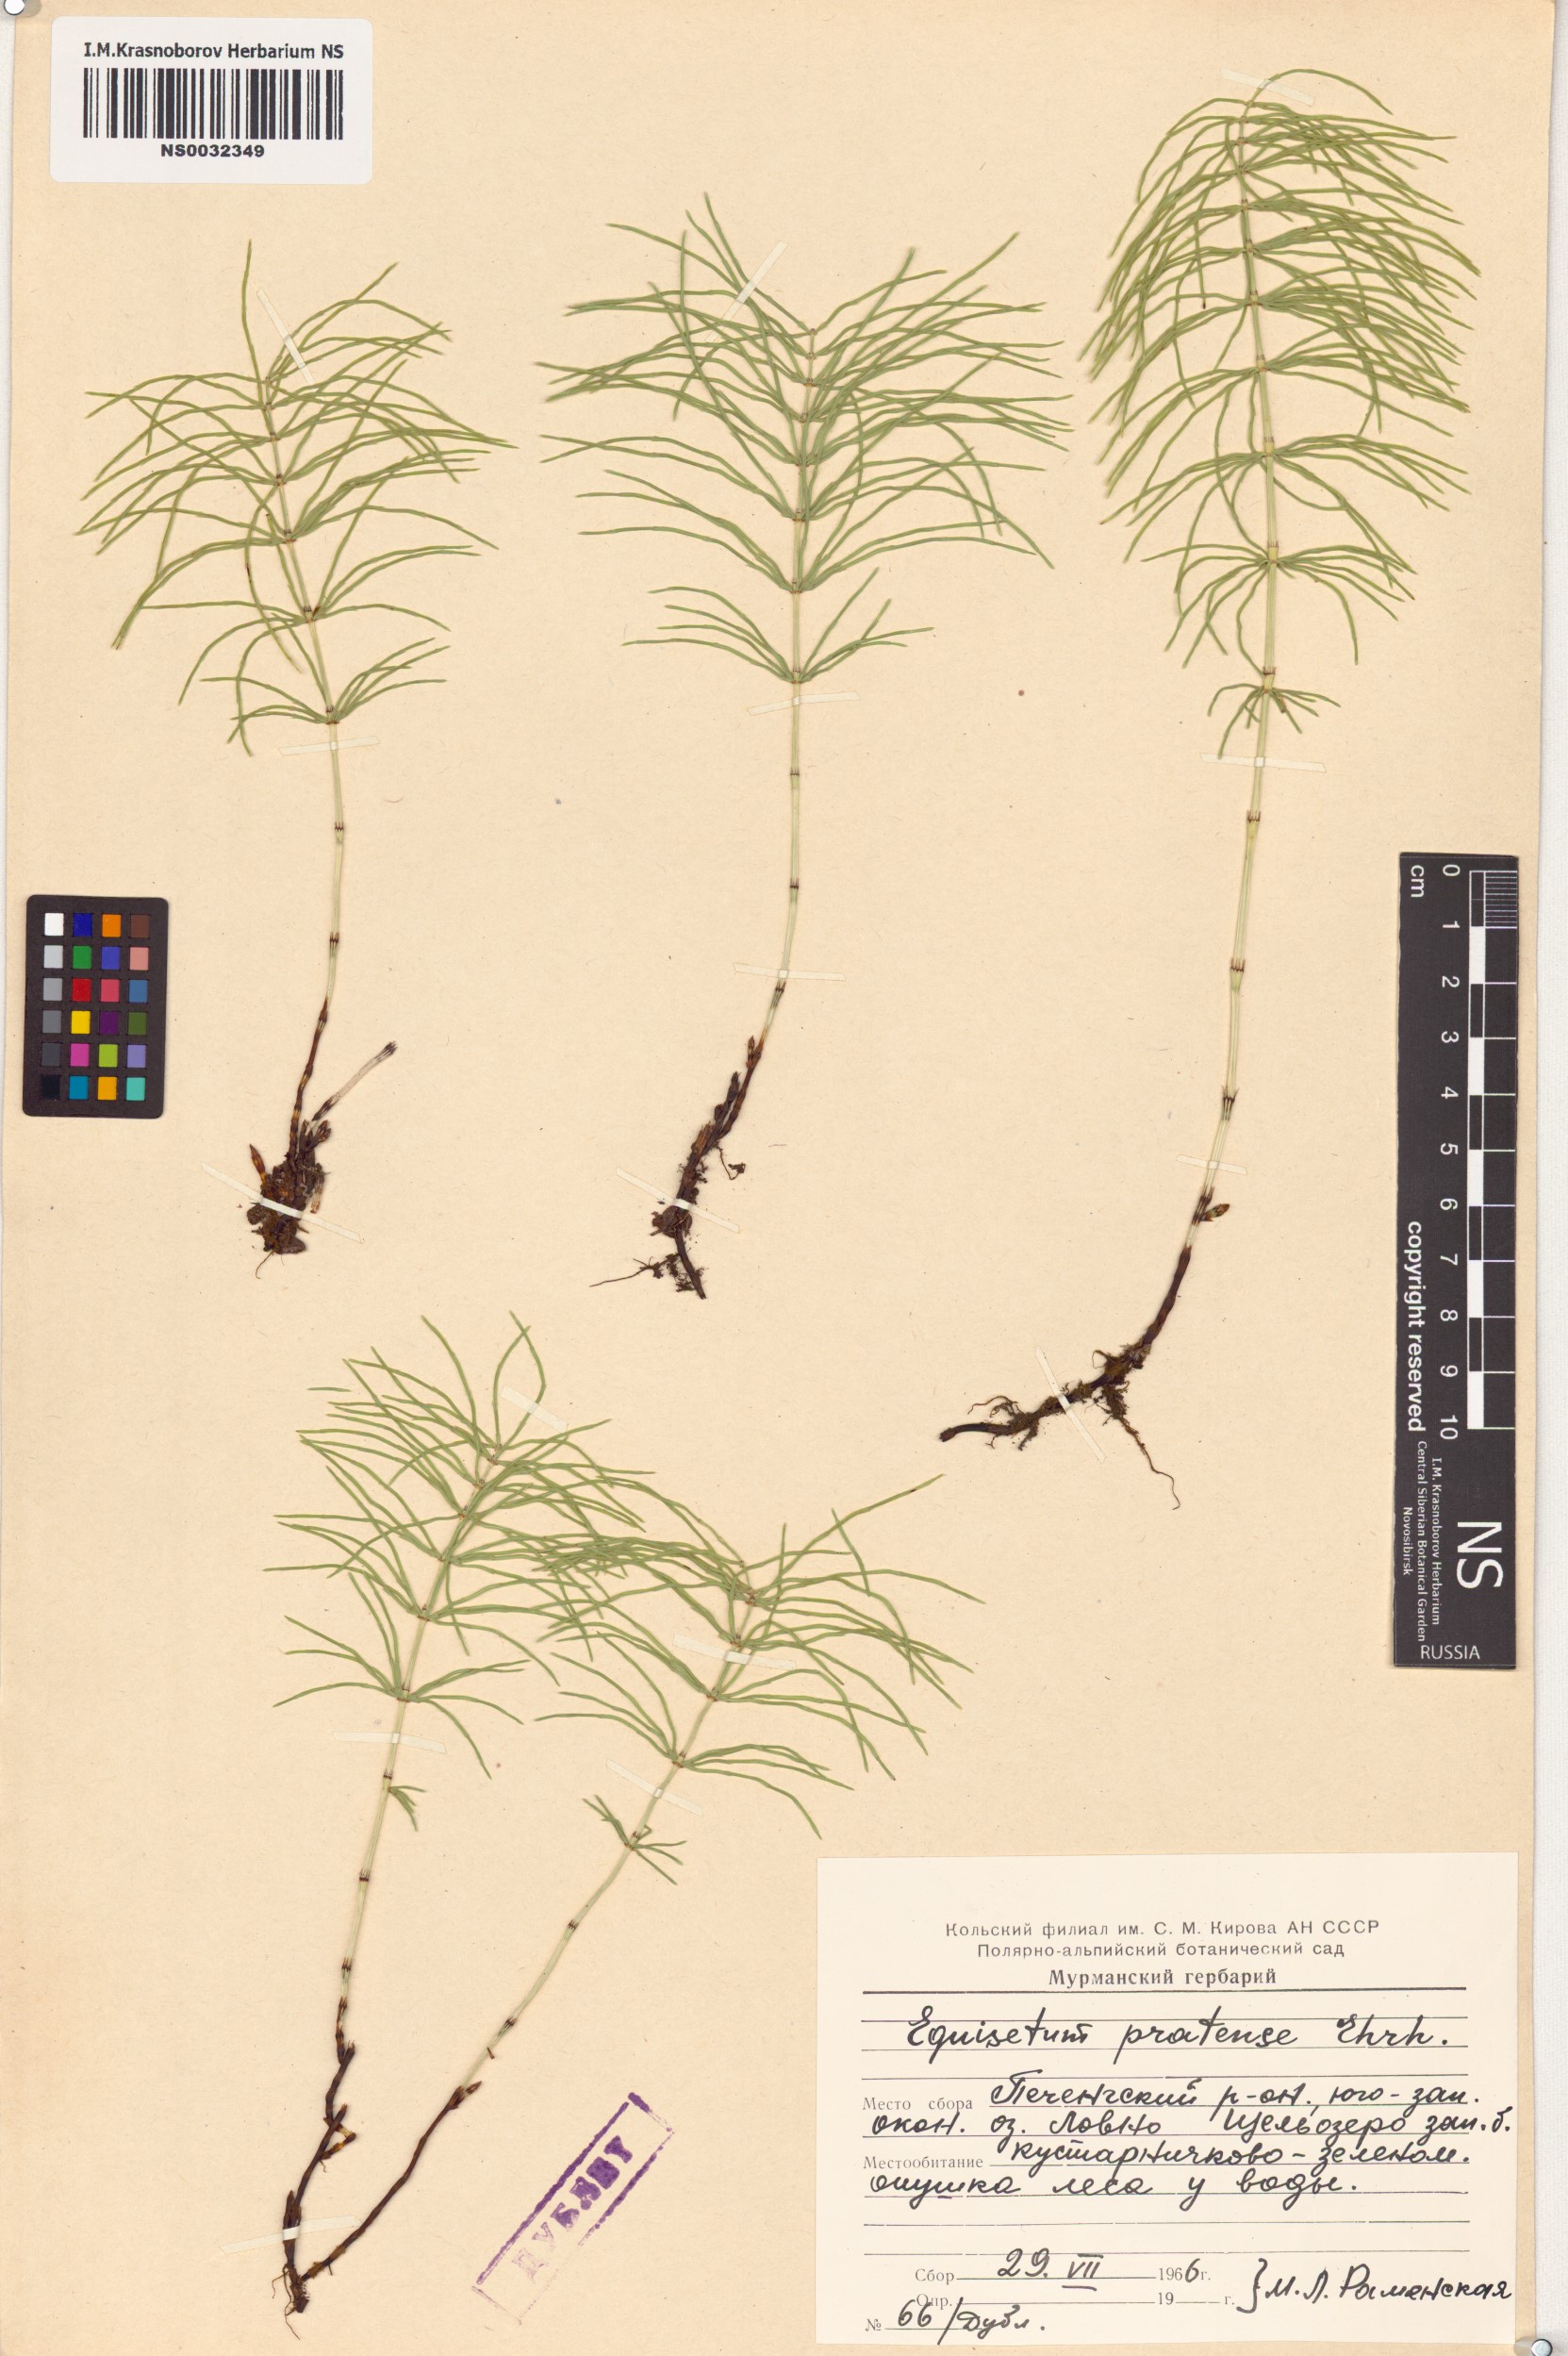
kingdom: Plantae
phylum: Tracheophyta
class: Polypodiopsida
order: Equisetales
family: Equisetaceae
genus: Equisetum
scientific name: Equisetum pratense
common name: Meadow horsetail
